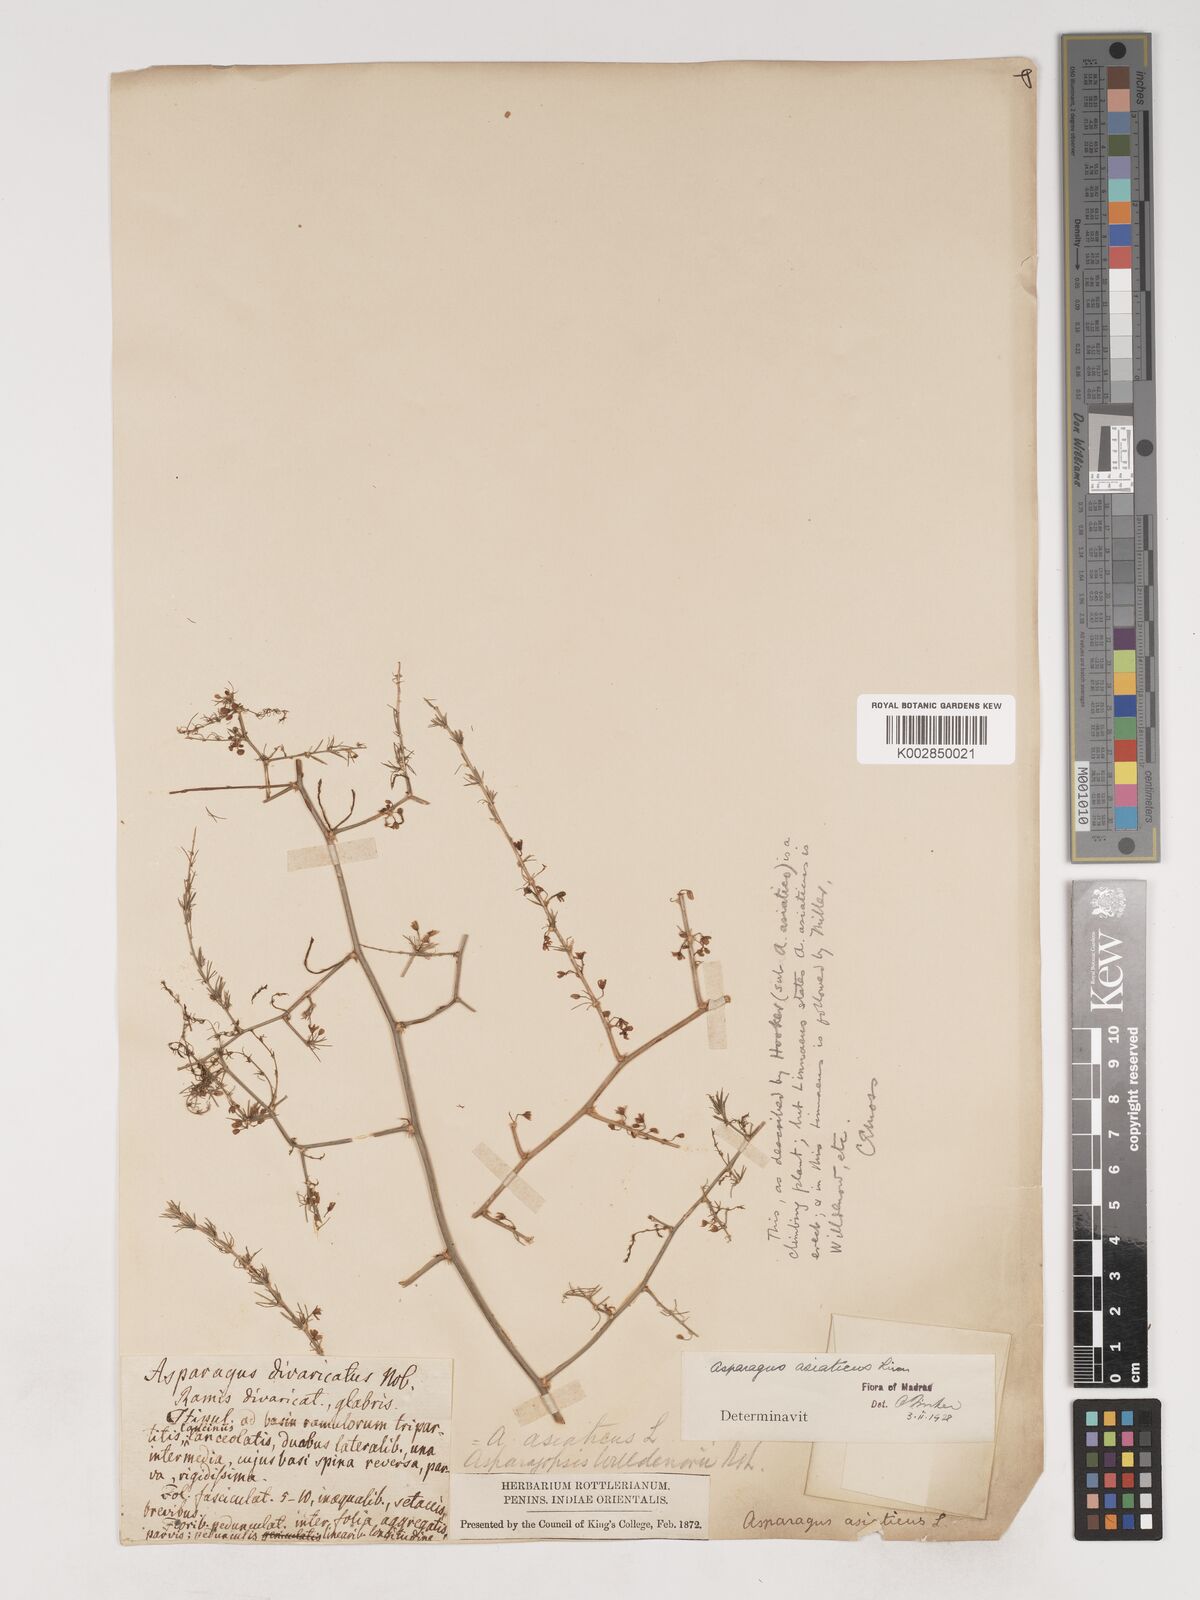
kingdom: Plantae
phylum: Tracheophyta
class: Liliopsida
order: Asparagales
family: Asparagaceae
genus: Asparagus
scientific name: Asparagus africanus
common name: Asparagus-fern
